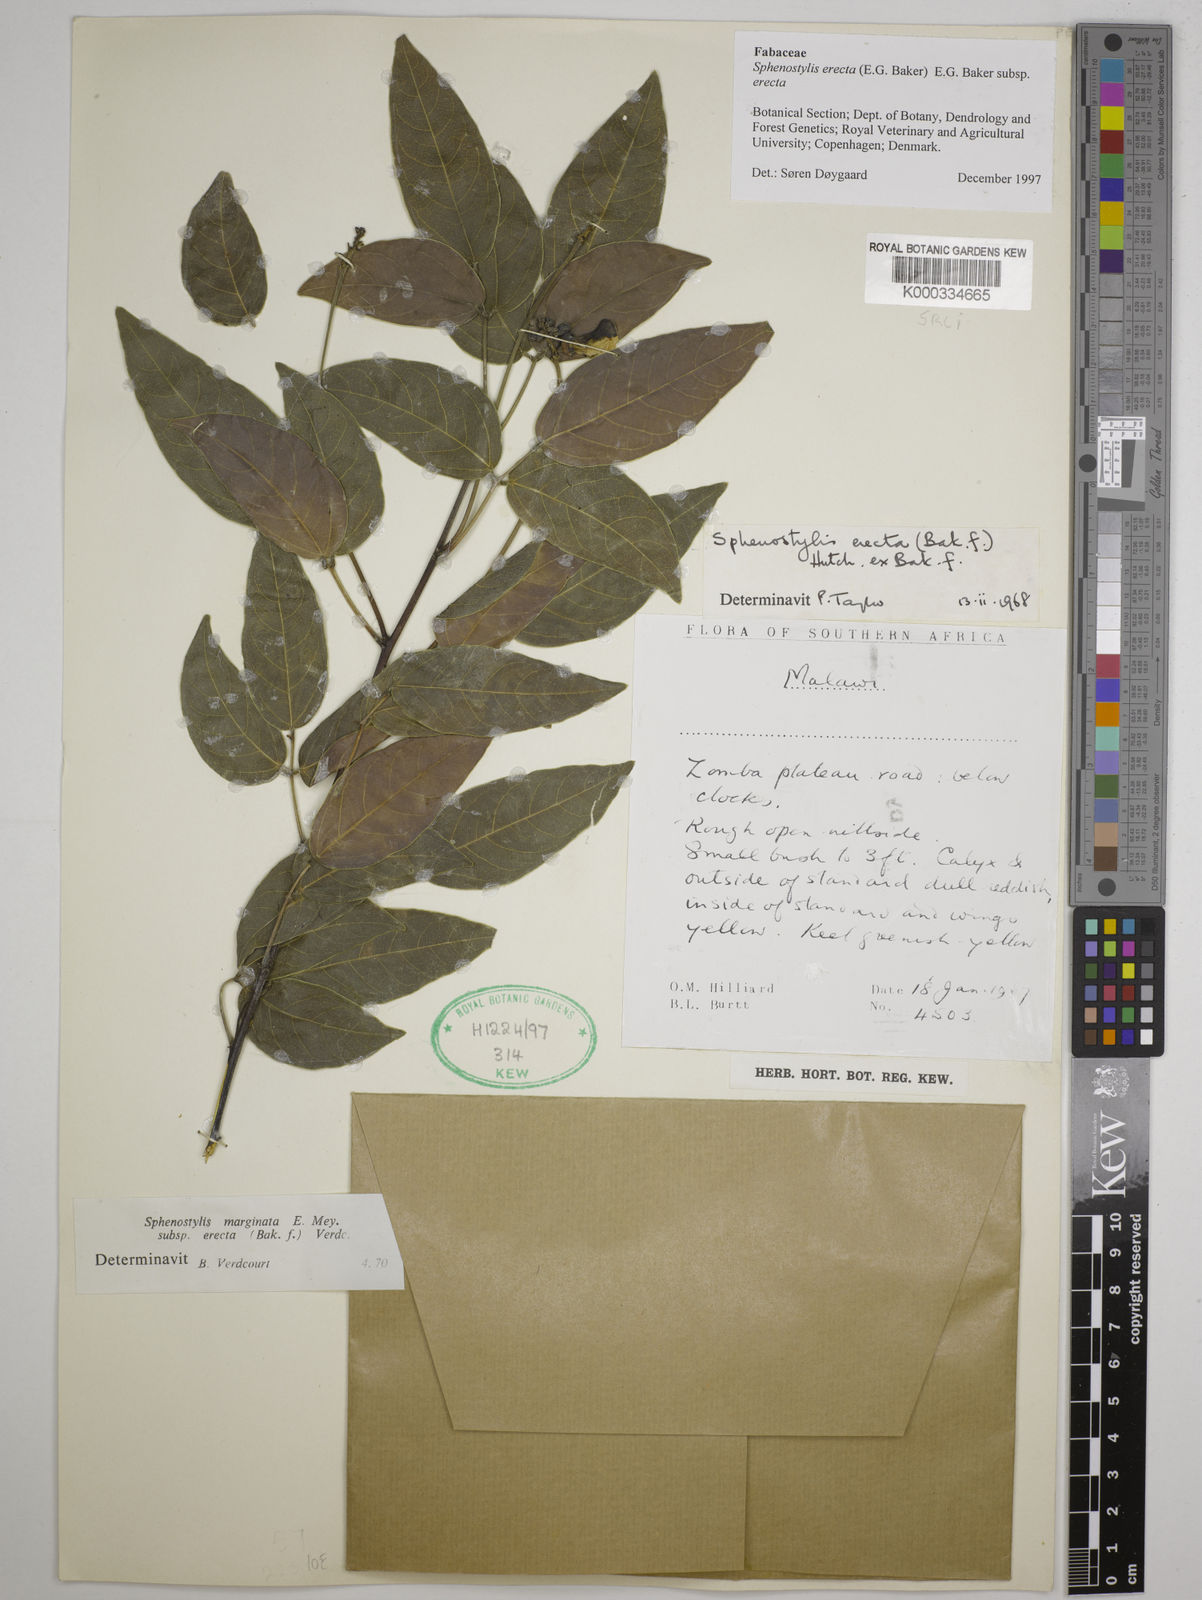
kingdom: Plantae
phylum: Tracheophyta
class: Magnoliopsida
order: Fabales
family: Fabaceae
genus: Sphenostylis
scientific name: Sphenostylis erecta
